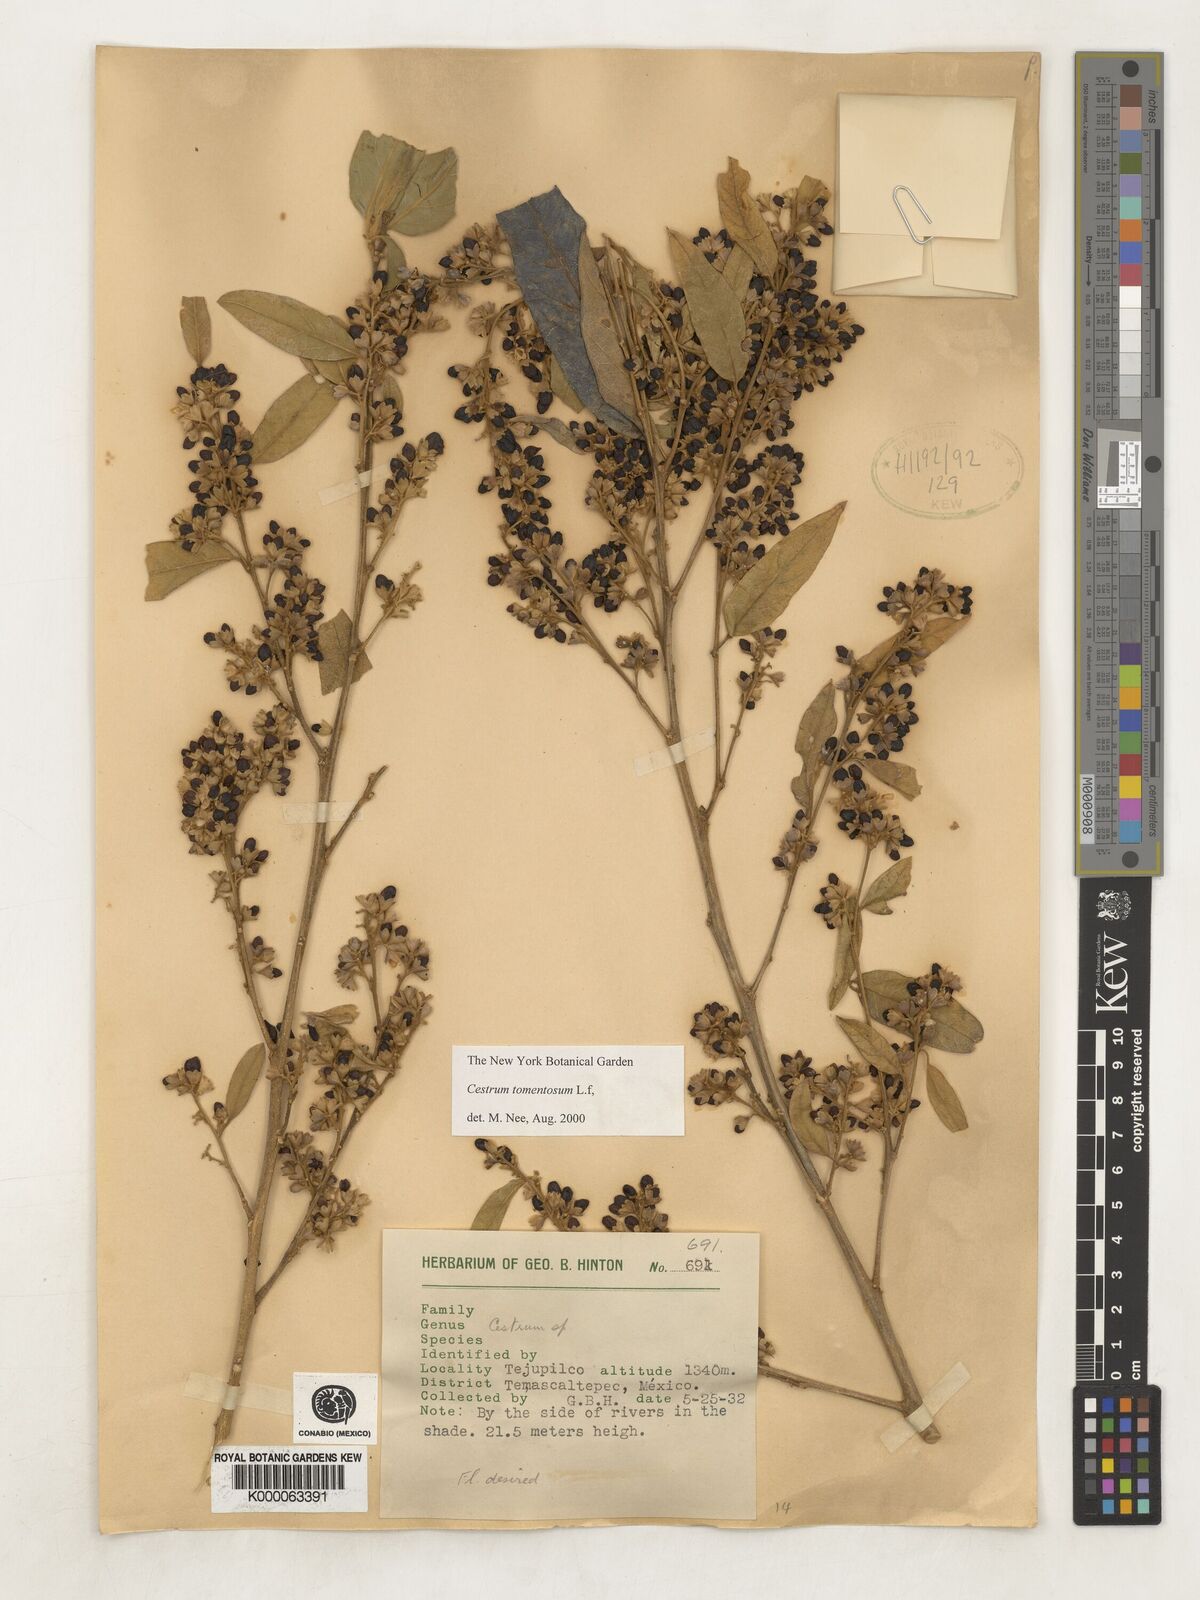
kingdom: Plantae
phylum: Tracheophyta
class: Magnoliopsida
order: Solanales
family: Solanaceae
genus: Cestrum
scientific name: Cestrum tomentosum
